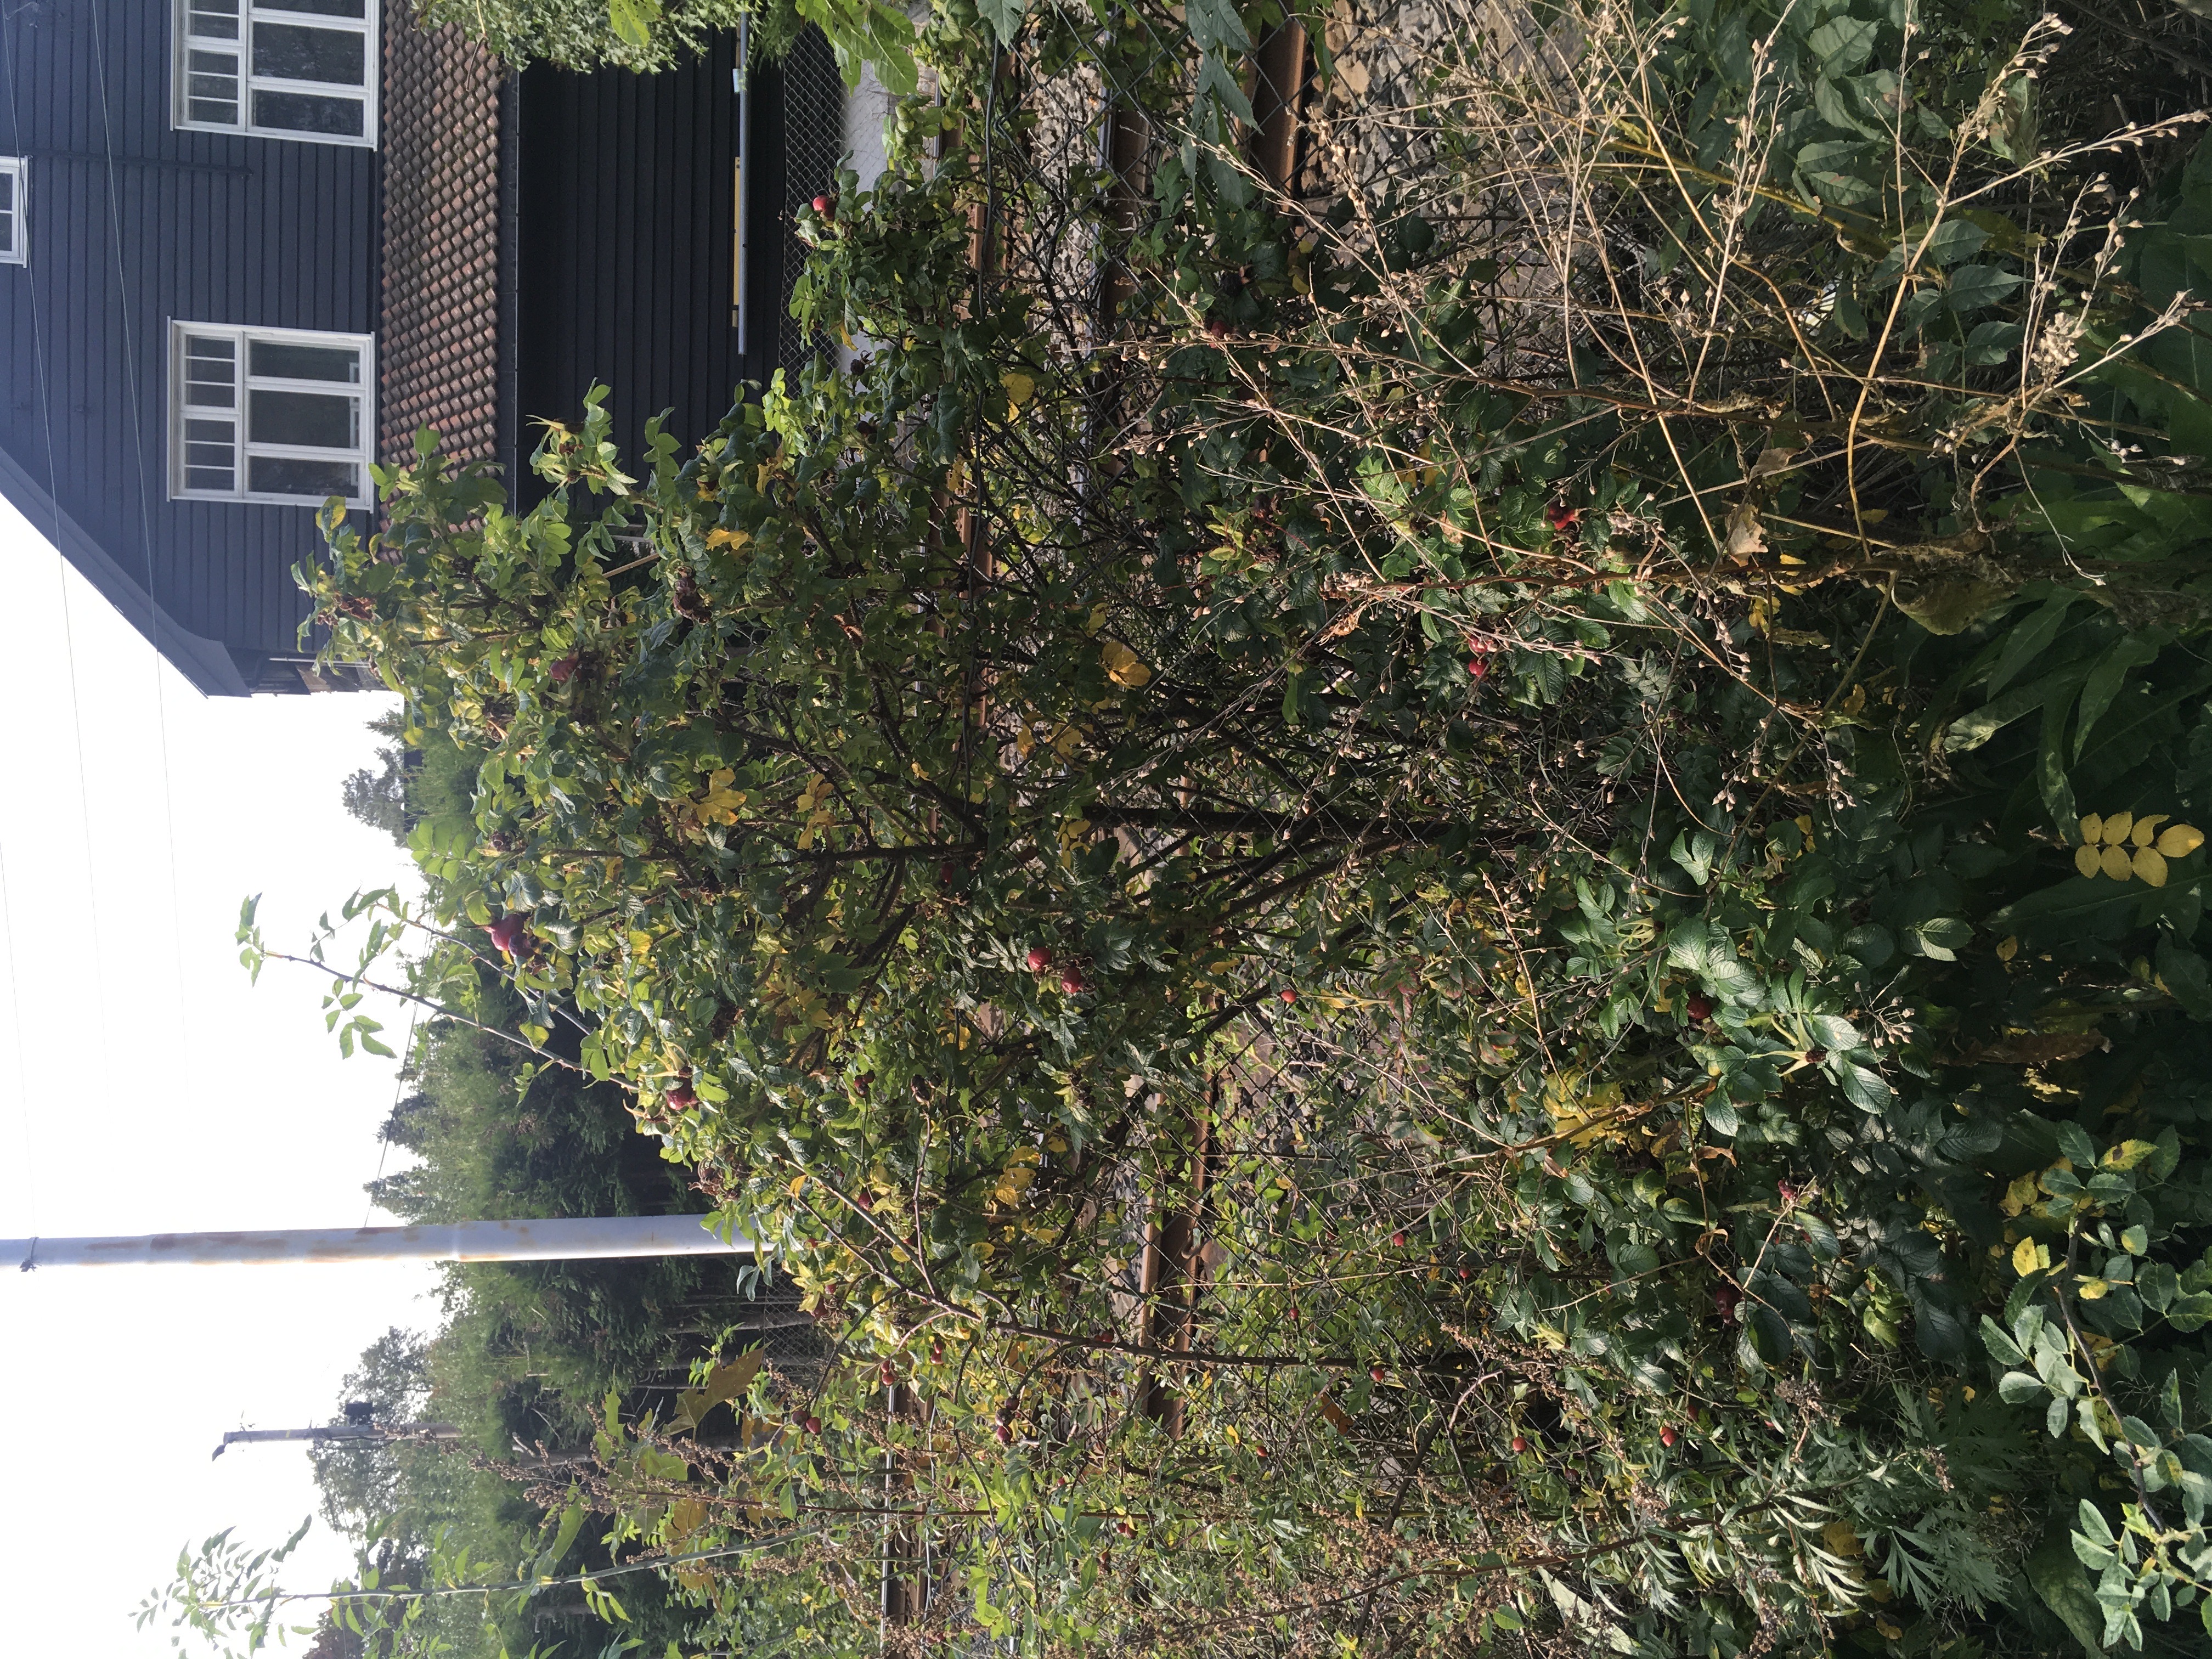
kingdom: Plantae
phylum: Tracheophyta
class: Magnoliopsida
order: Rosales
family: Rosaceae
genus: Rosa
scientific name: Rosa rugosa
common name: rynkerose
